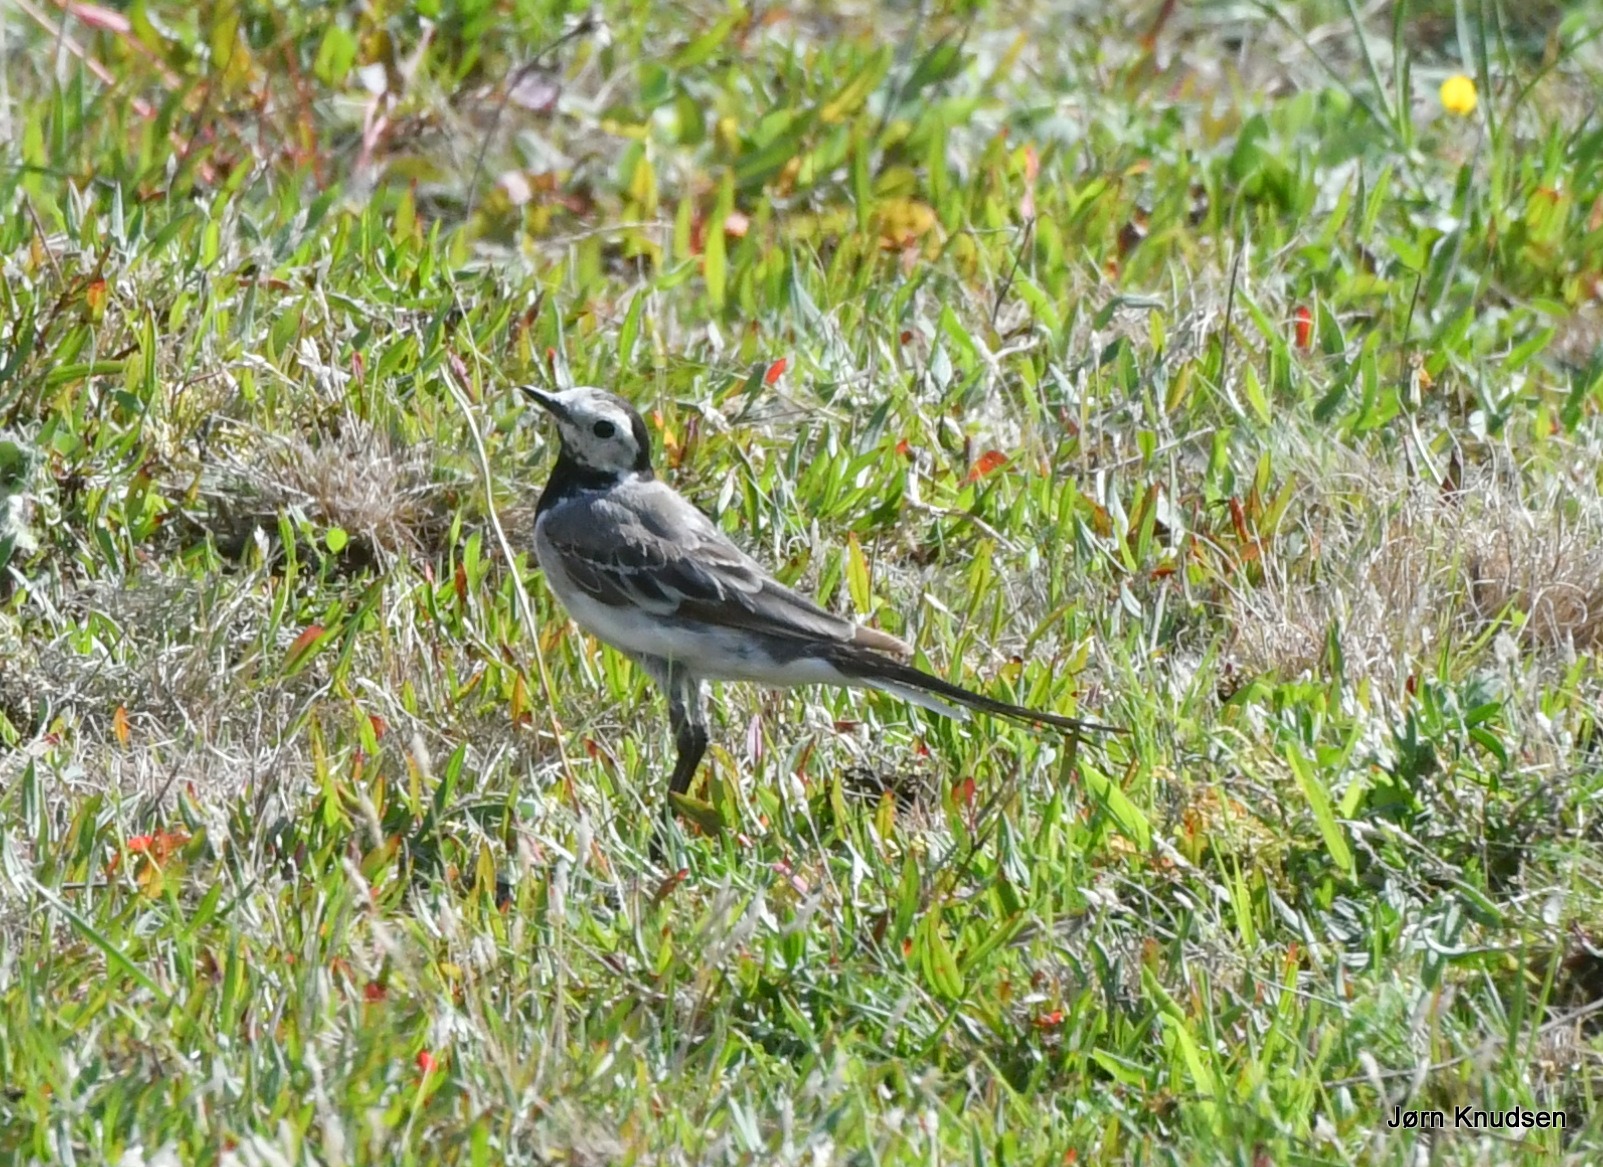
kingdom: Animalia
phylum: Chordata
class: Aves
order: Passeriformes
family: Motacillidae
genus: Motacilla
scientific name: Motacilla alba
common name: Hvid vipstjert
